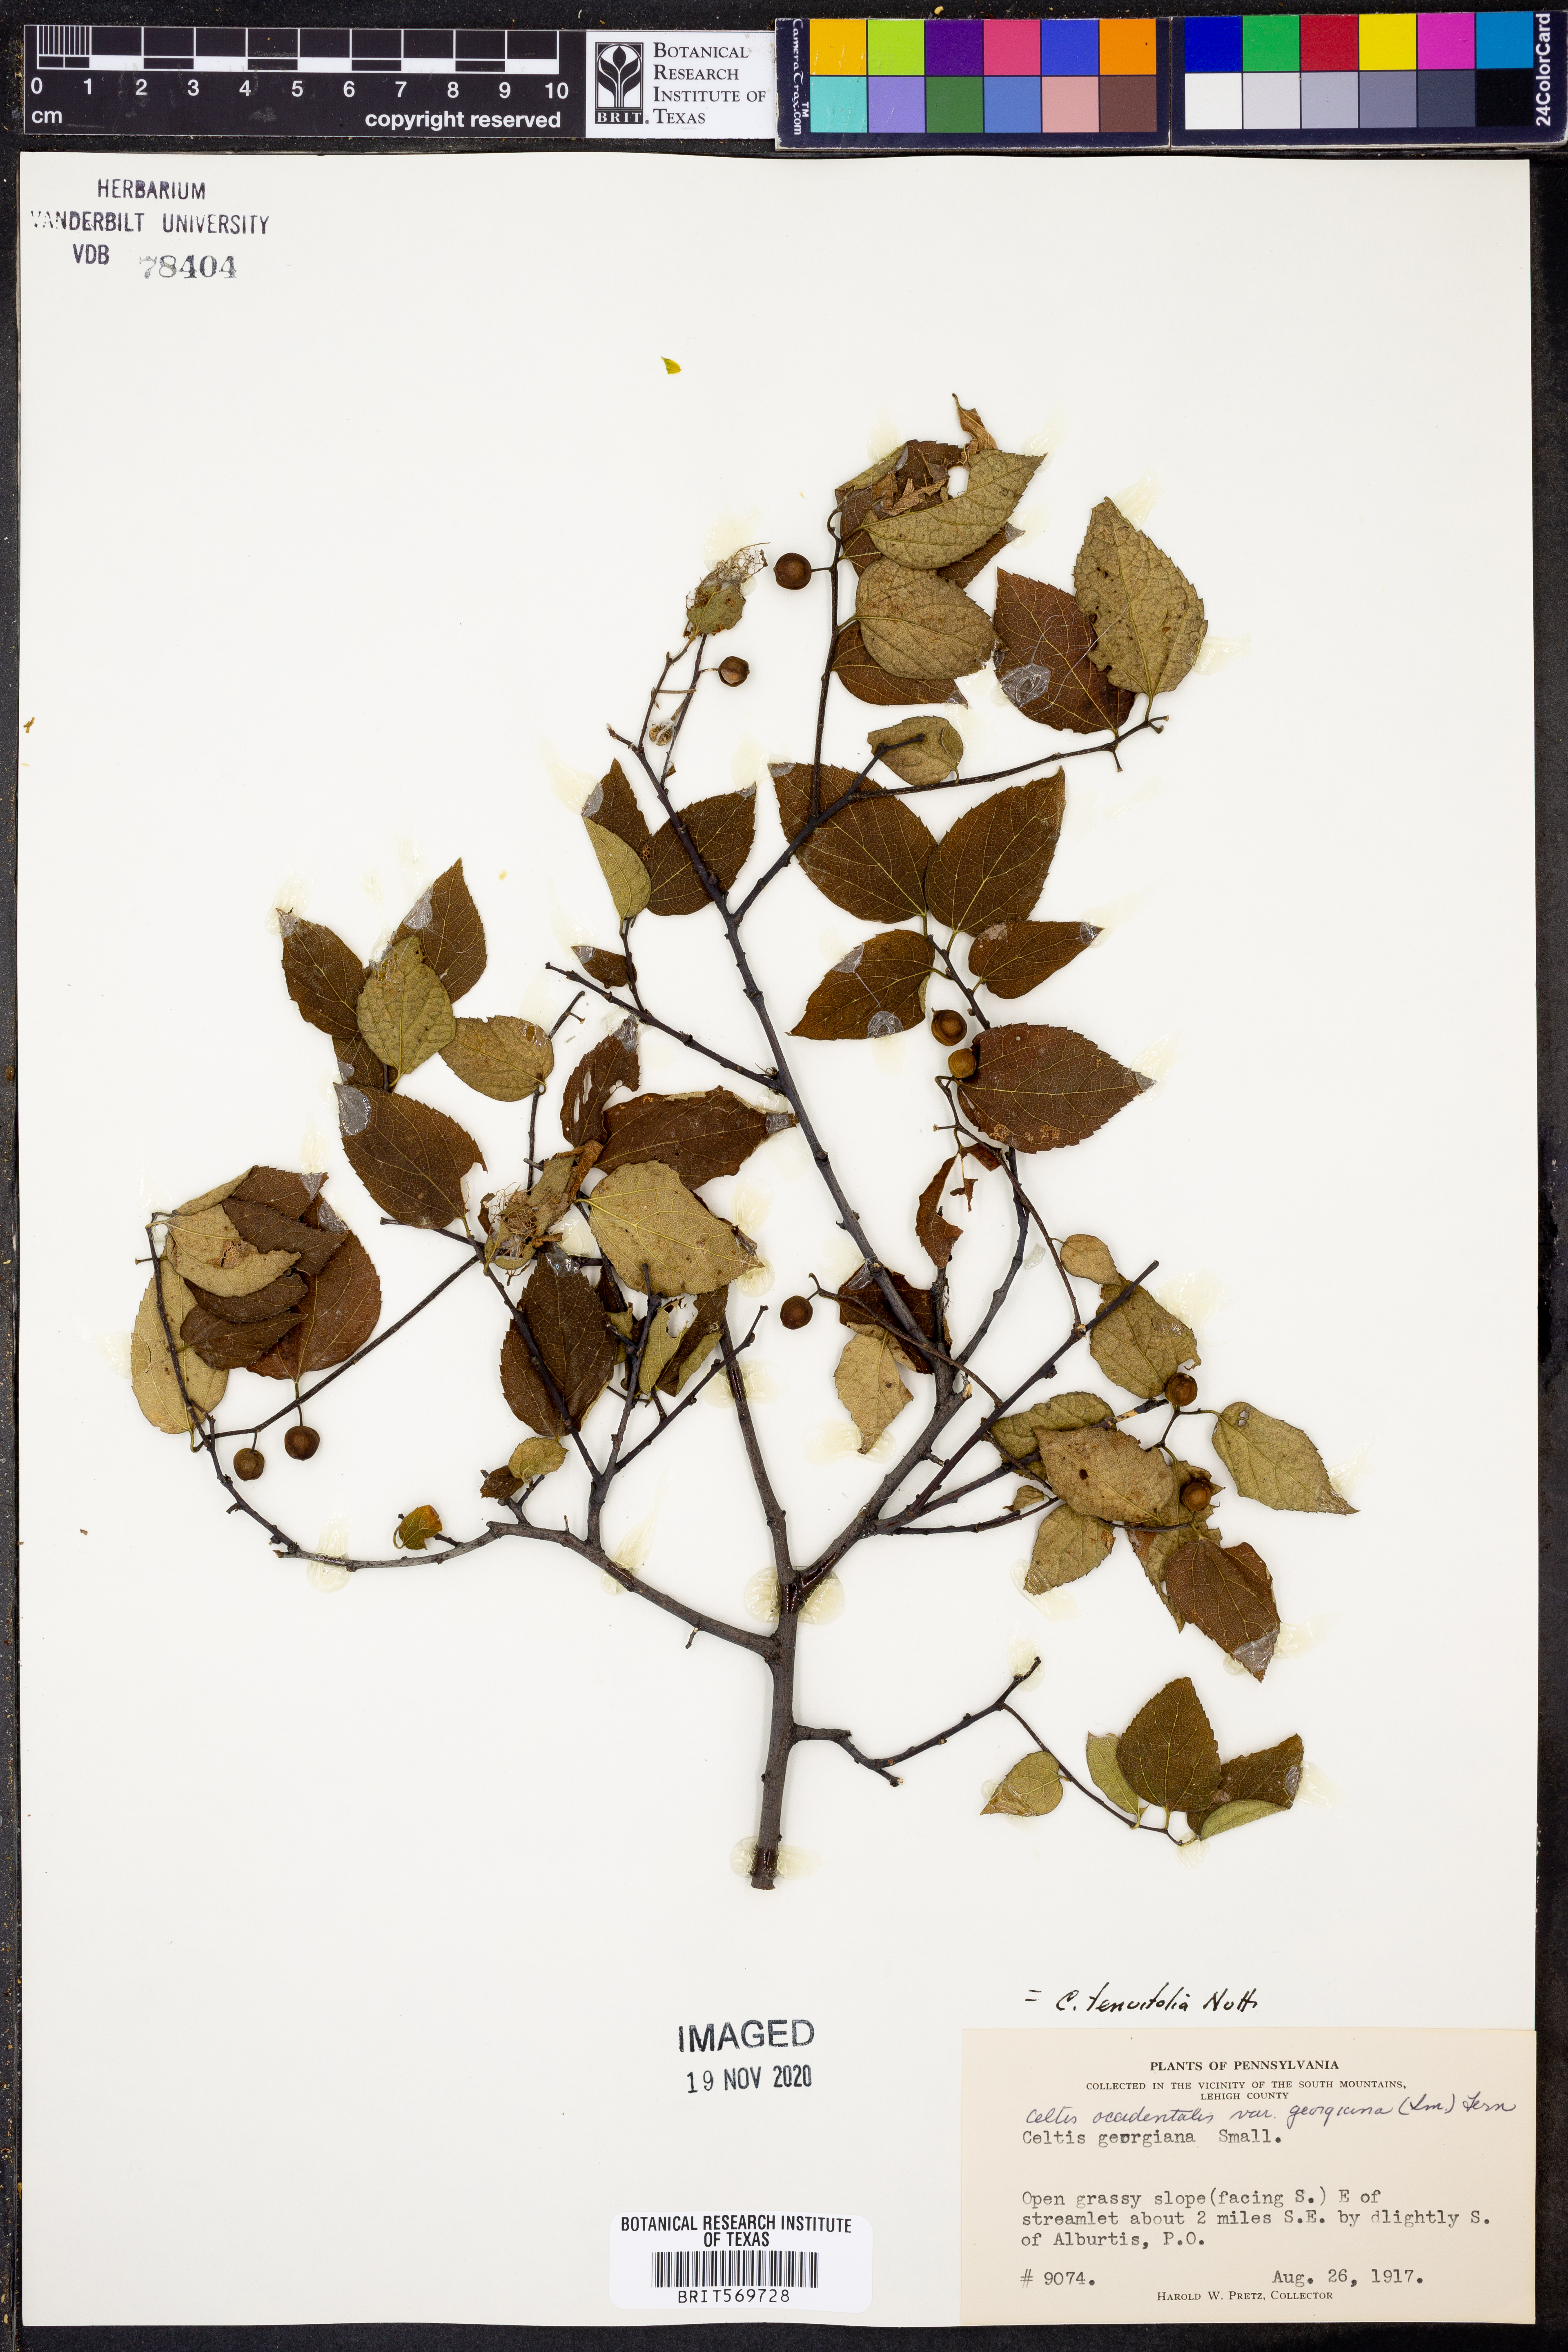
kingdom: Plantae
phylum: Tracheophyta
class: Magnoliopsida
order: Rosales
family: Cannabaceae
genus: Celtis
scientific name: Celtis tenuifolia
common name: Georgia hackberry
